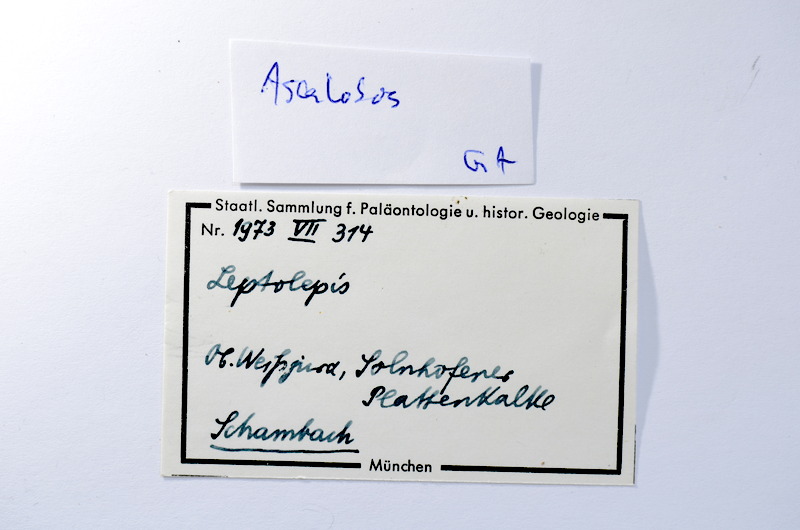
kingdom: Animalia
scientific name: Animalia
